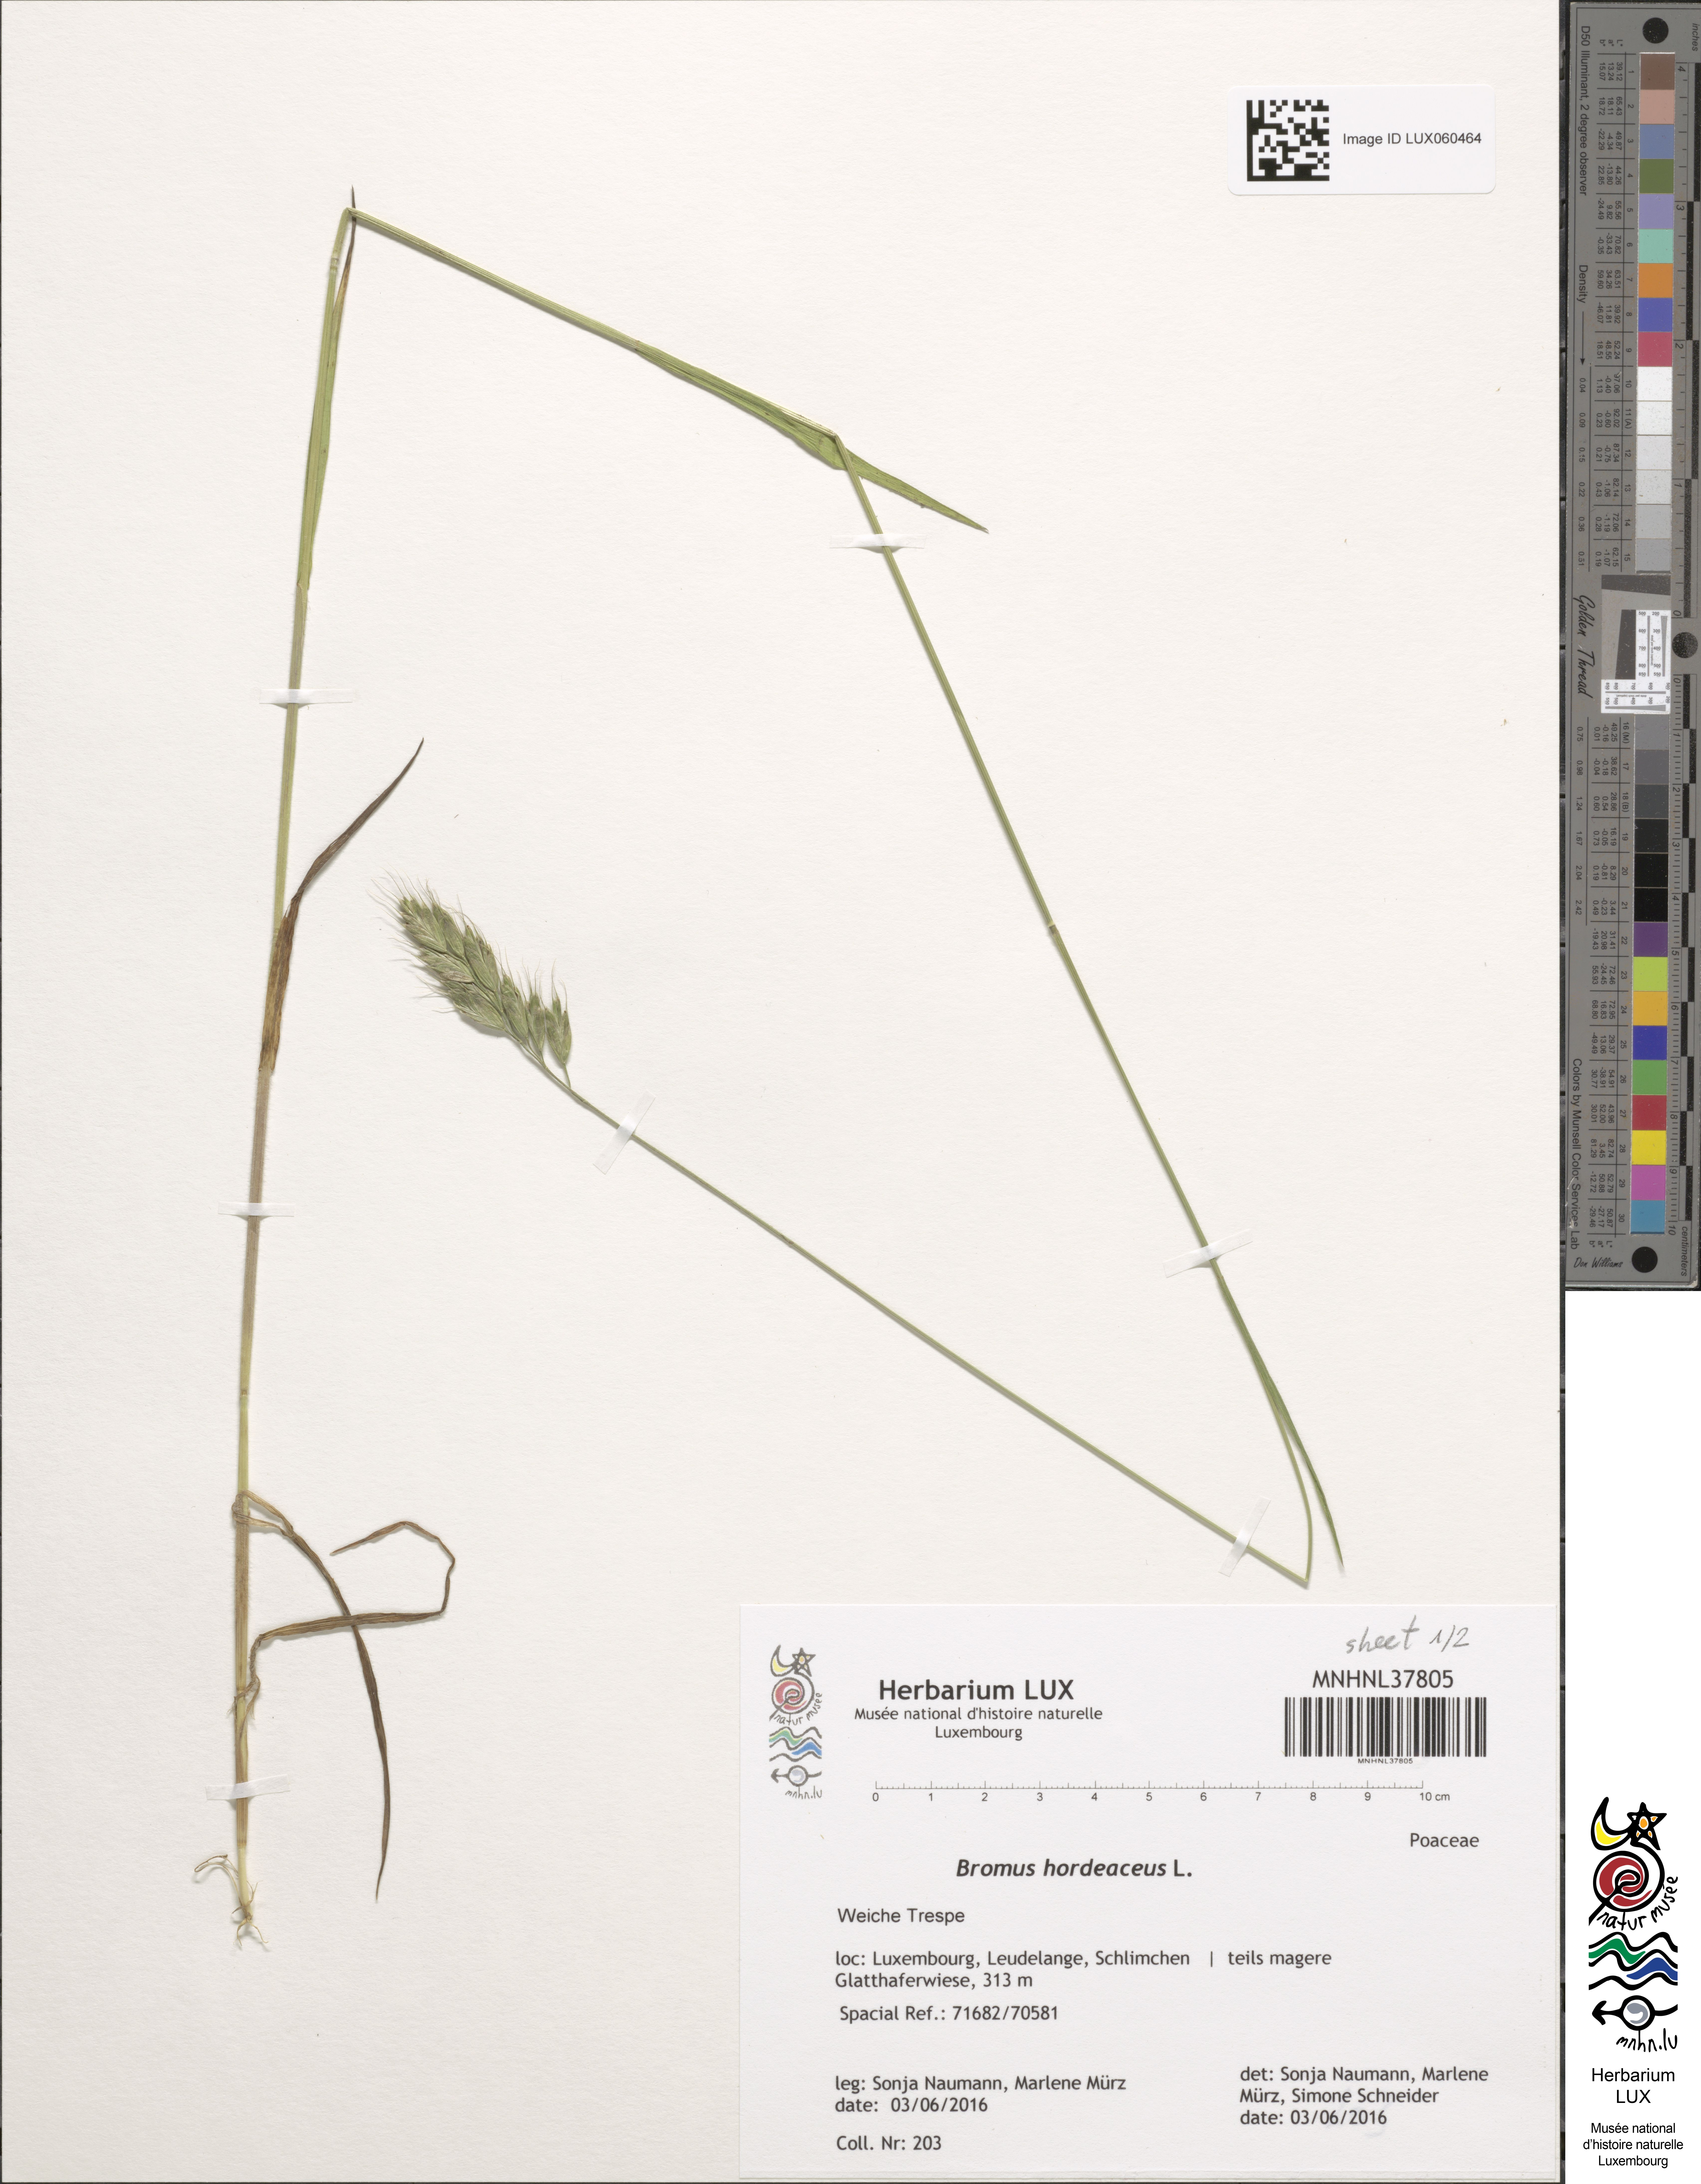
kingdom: Plantae
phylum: Tracheophyta
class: Liliopsida
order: Poales
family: Poaceae
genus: Bromus
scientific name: Bromus hordeaceus
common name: Soft brome
